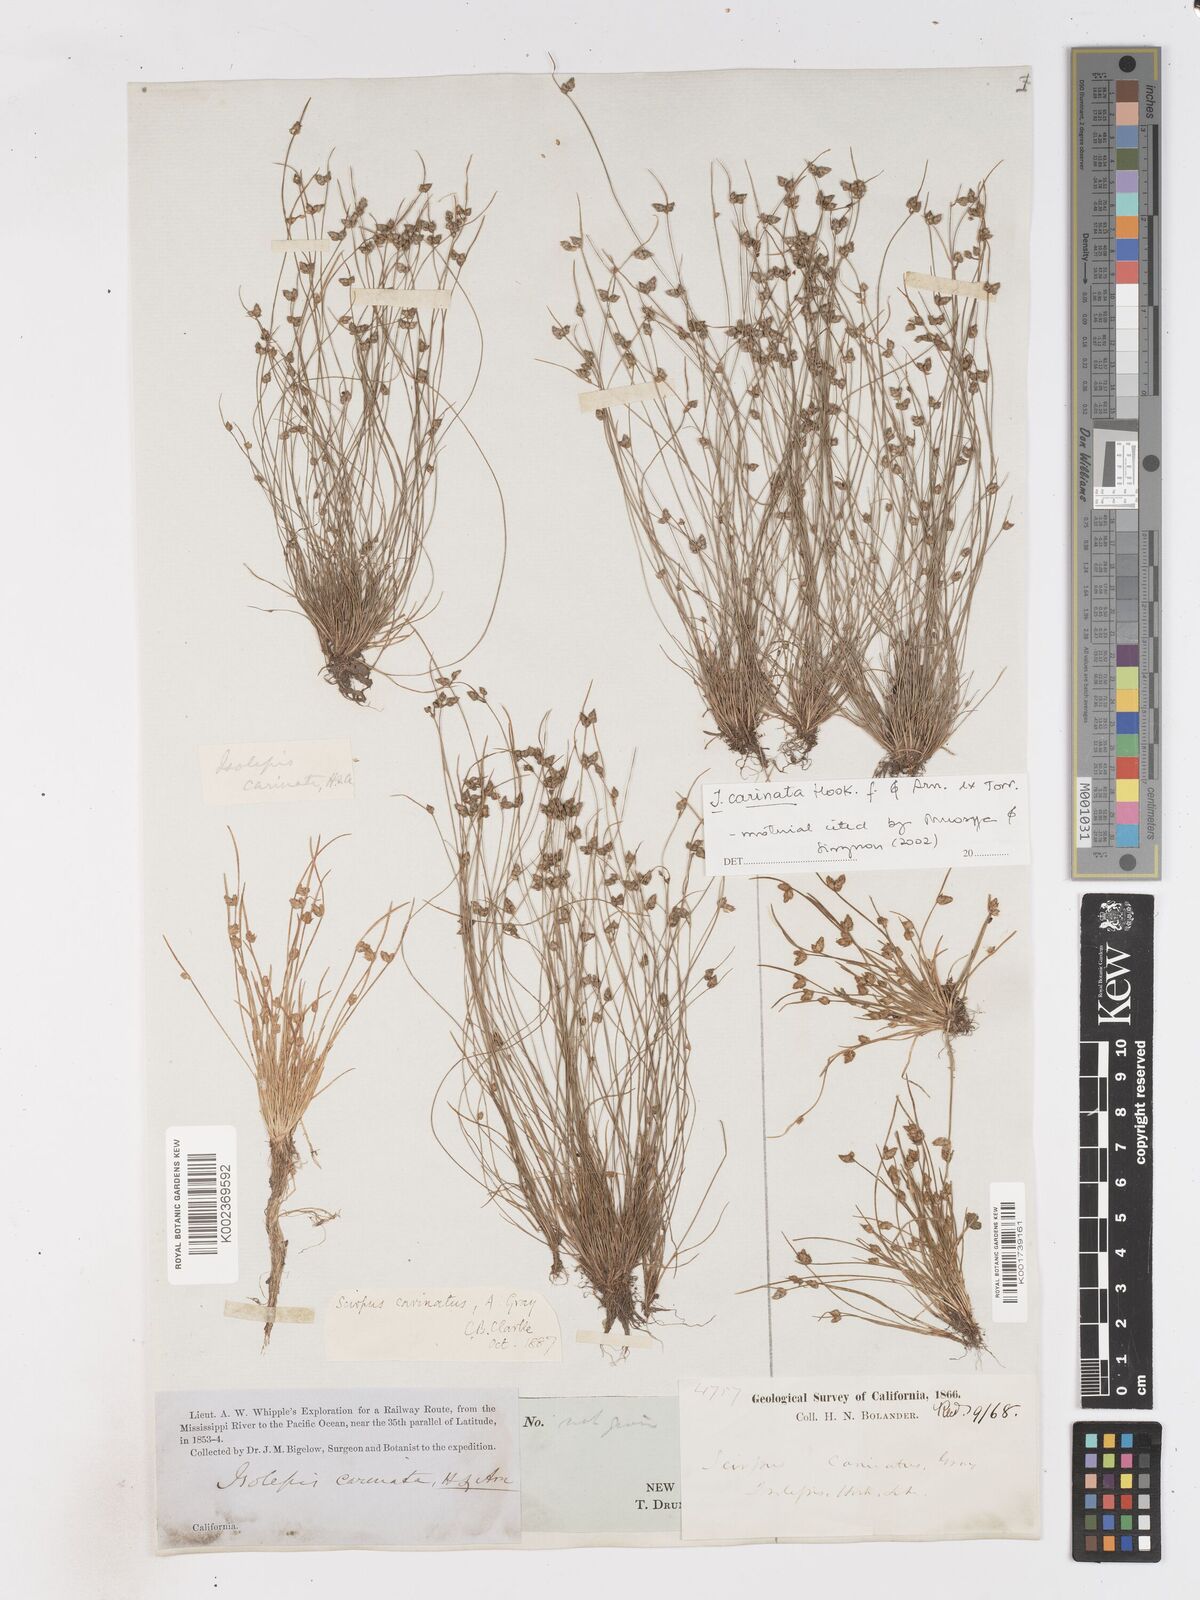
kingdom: Plantae
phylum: Tracheophyta
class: Liliopsida
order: Poales
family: Cyperaceae
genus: Isolepis
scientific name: Isolepis carinata
